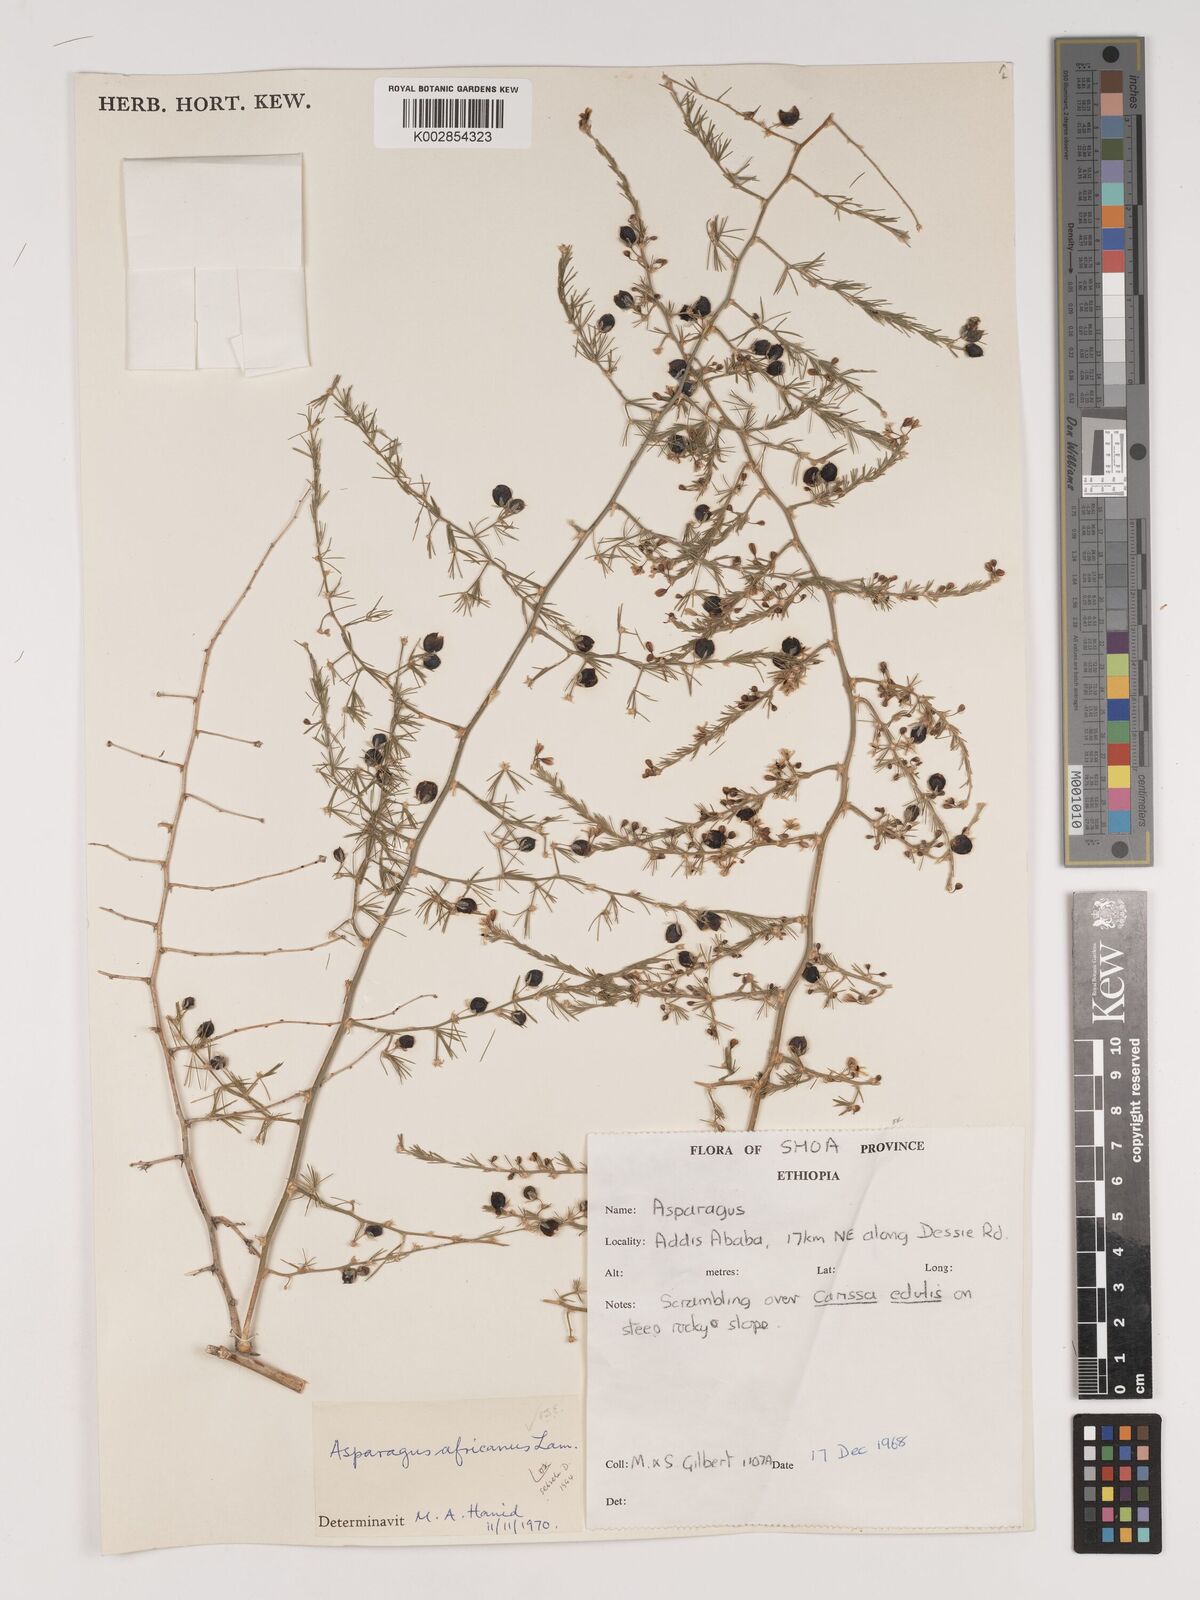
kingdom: Plantae
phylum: Tracheophyta
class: Liliopsida
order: Asparagales
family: Asparagaceae
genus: Asparagus
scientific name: Asparagus africanus
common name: Asparagus-fern
